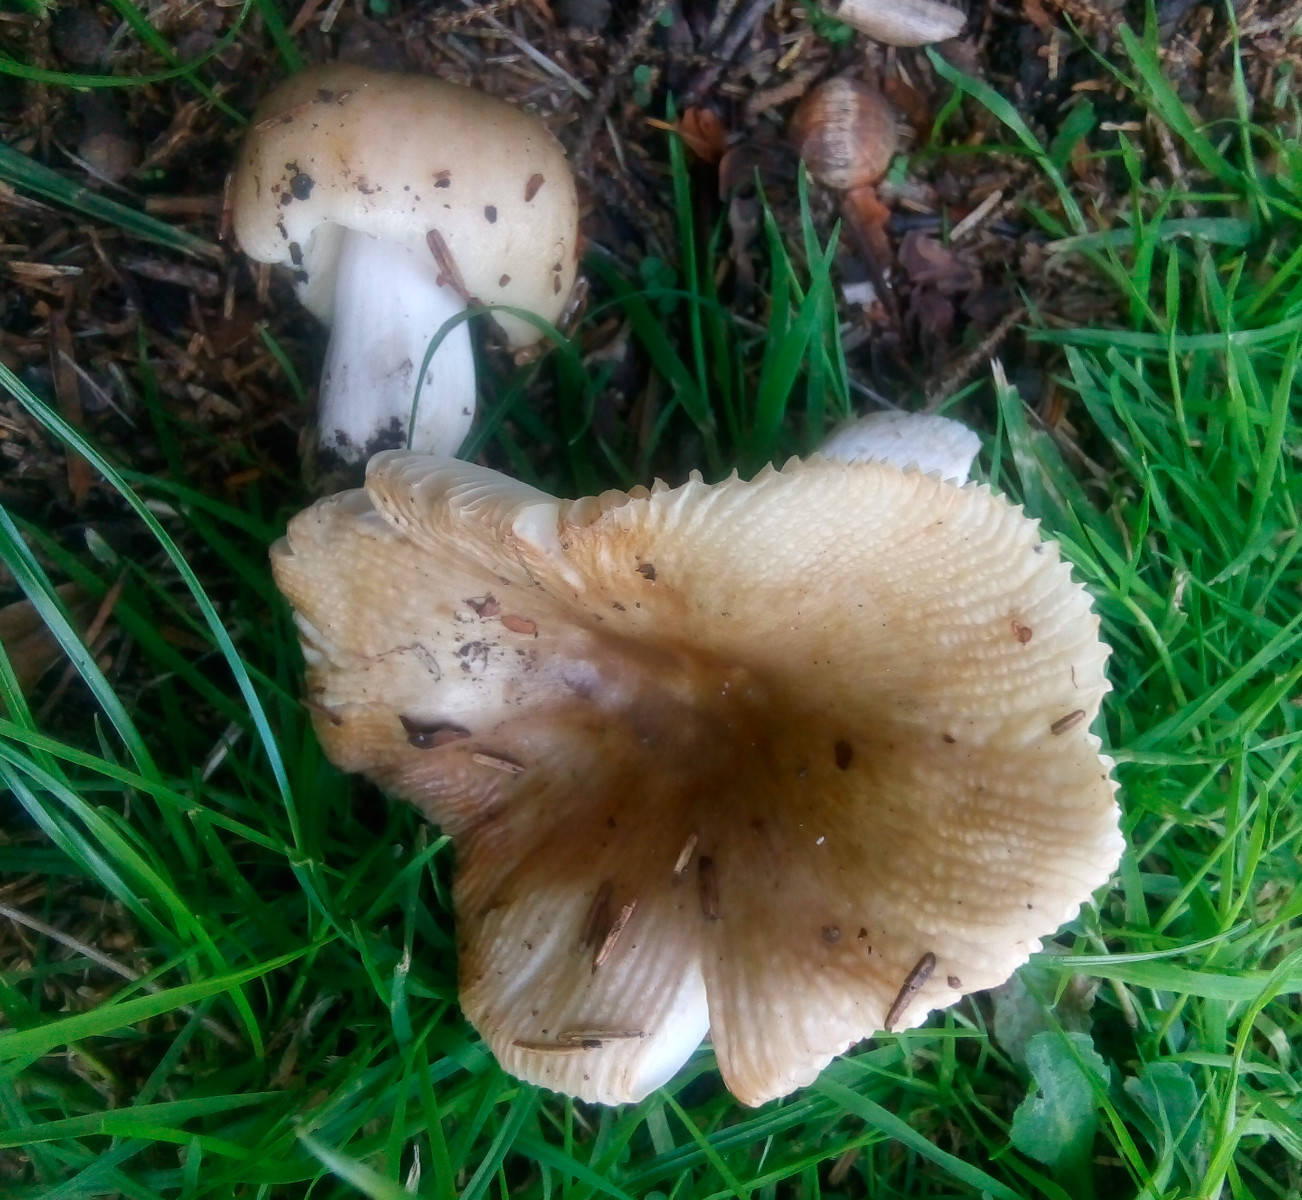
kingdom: Fungi
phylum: Basidiomycota
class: Agaricomycetes
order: Russulales
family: Russulaceae
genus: Russula
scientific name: Russula recondita
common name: mild kam-skørhat
